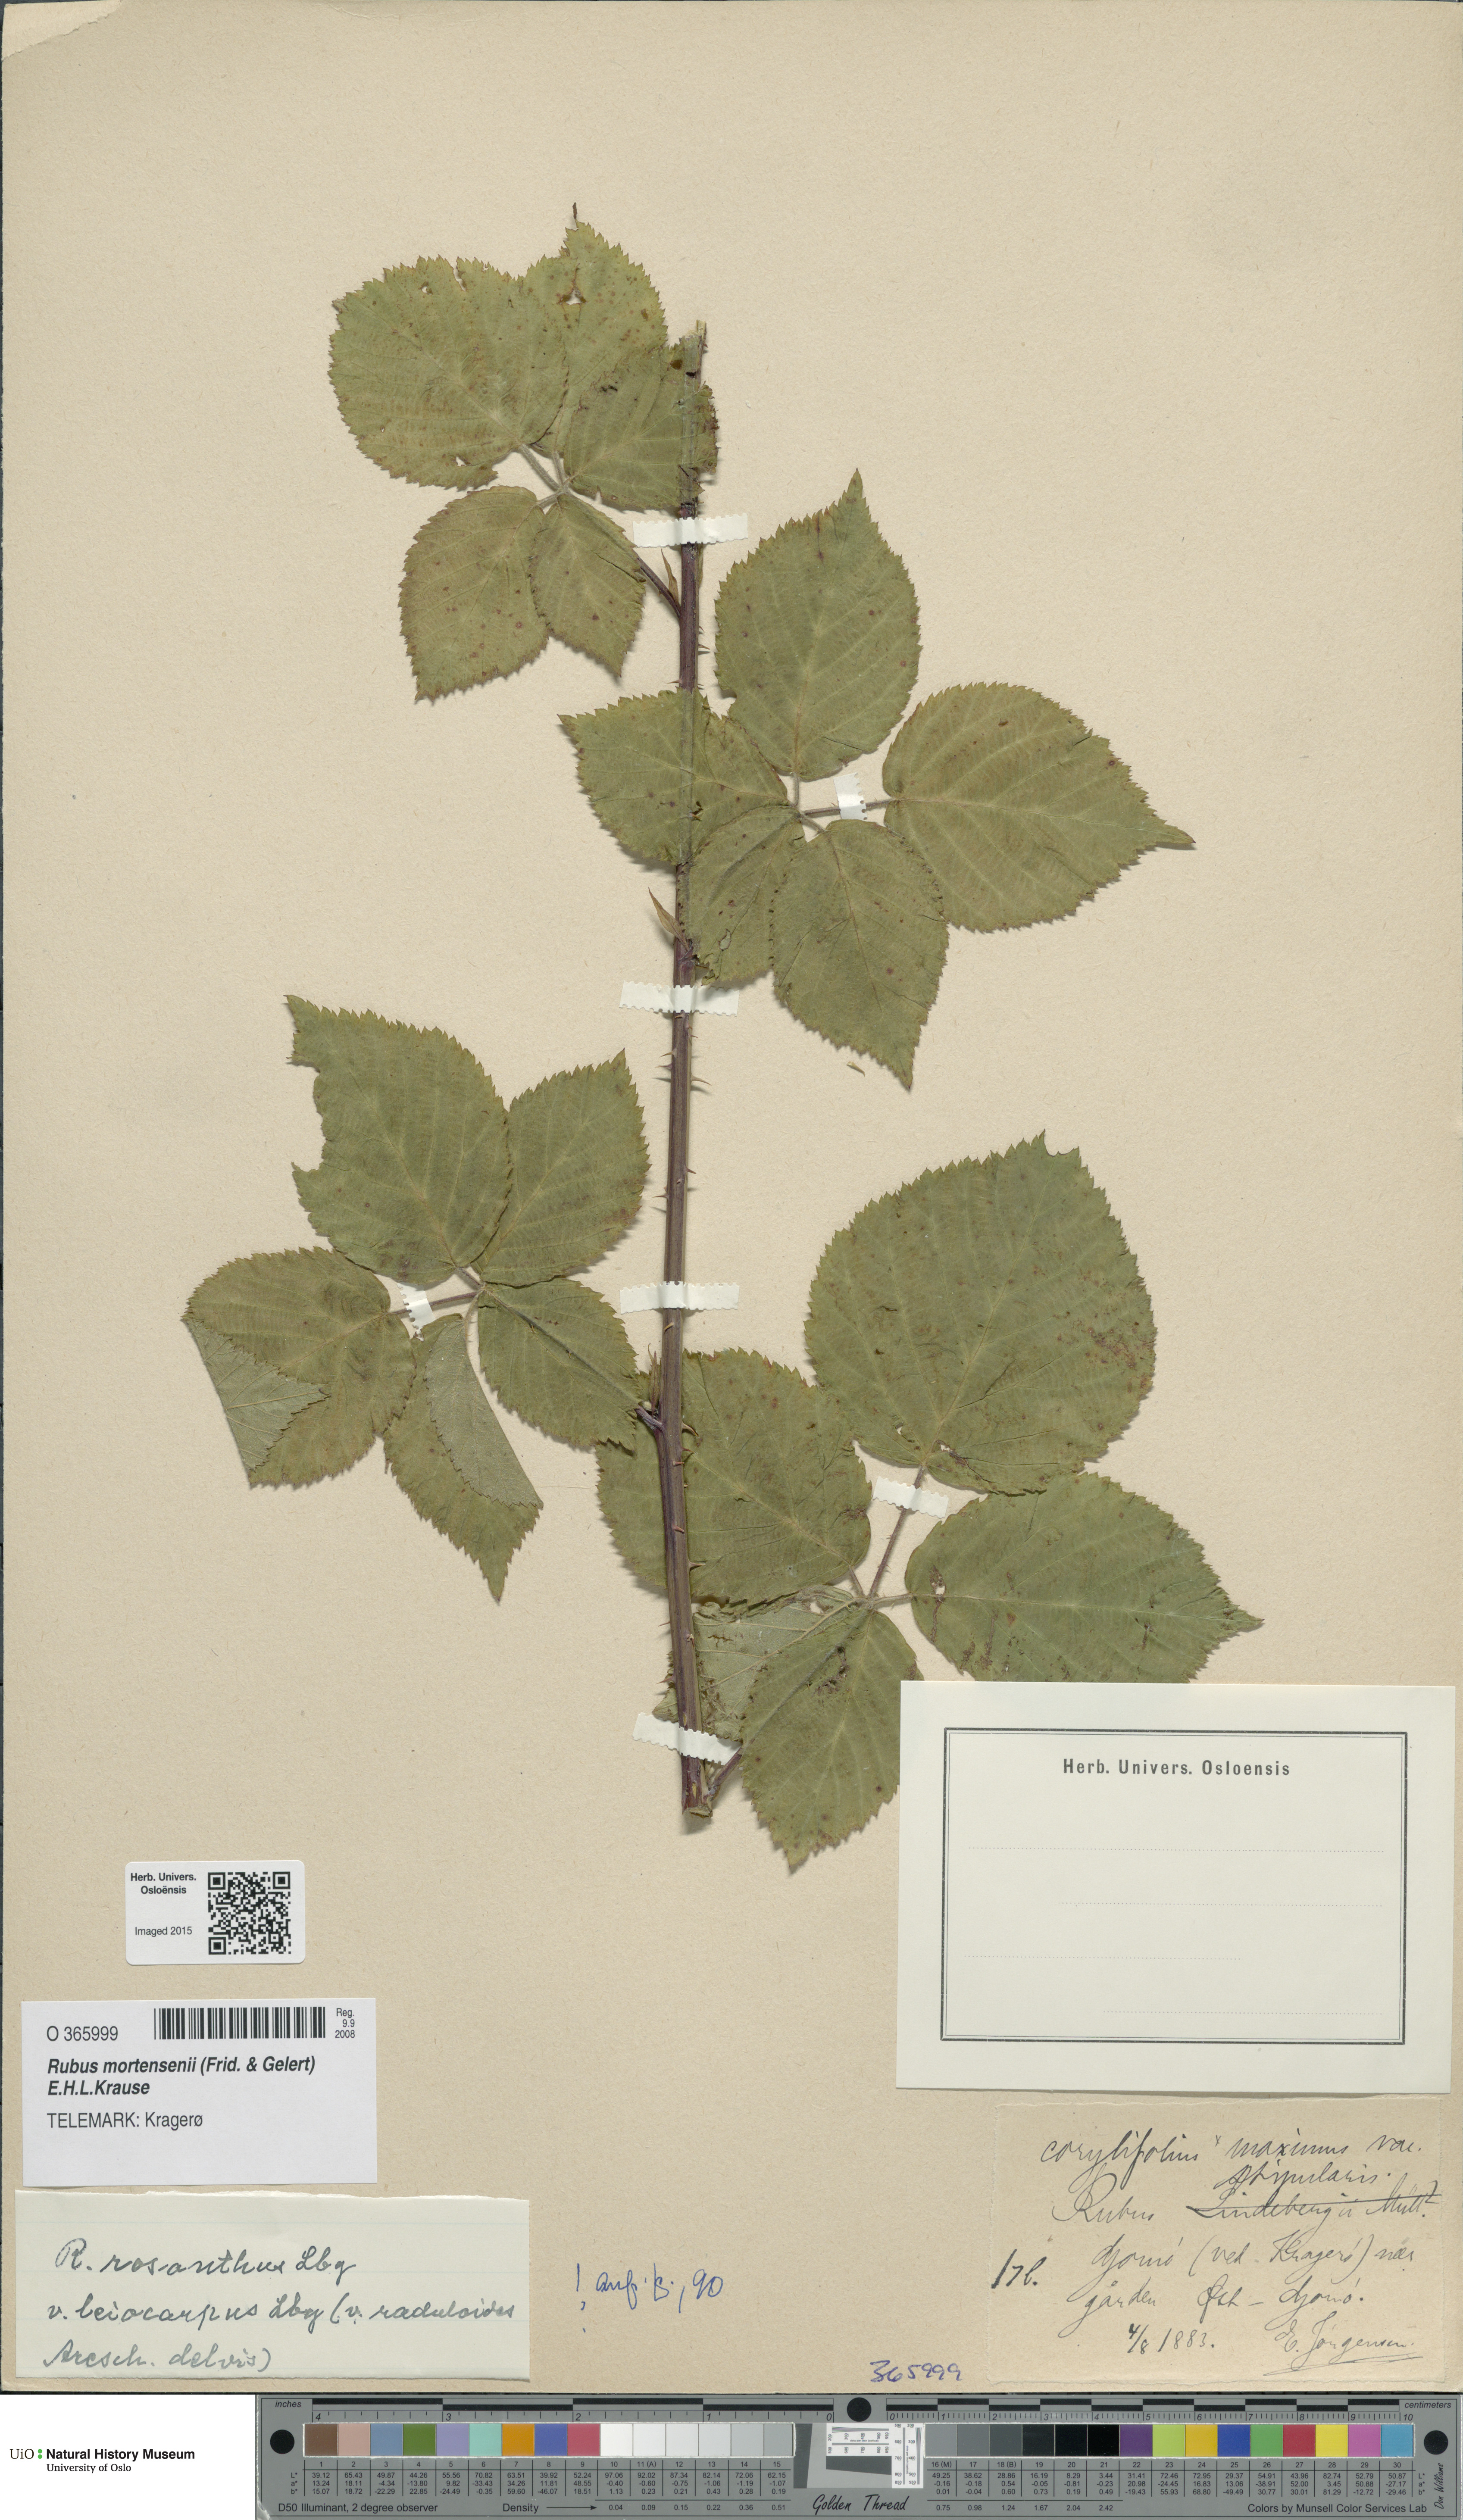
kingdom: Plantae
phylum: Tracheophyta
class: Magnoliopsida
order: Rosales
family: Rosaceae
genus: Rubus
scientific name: Rubus mortensenii
